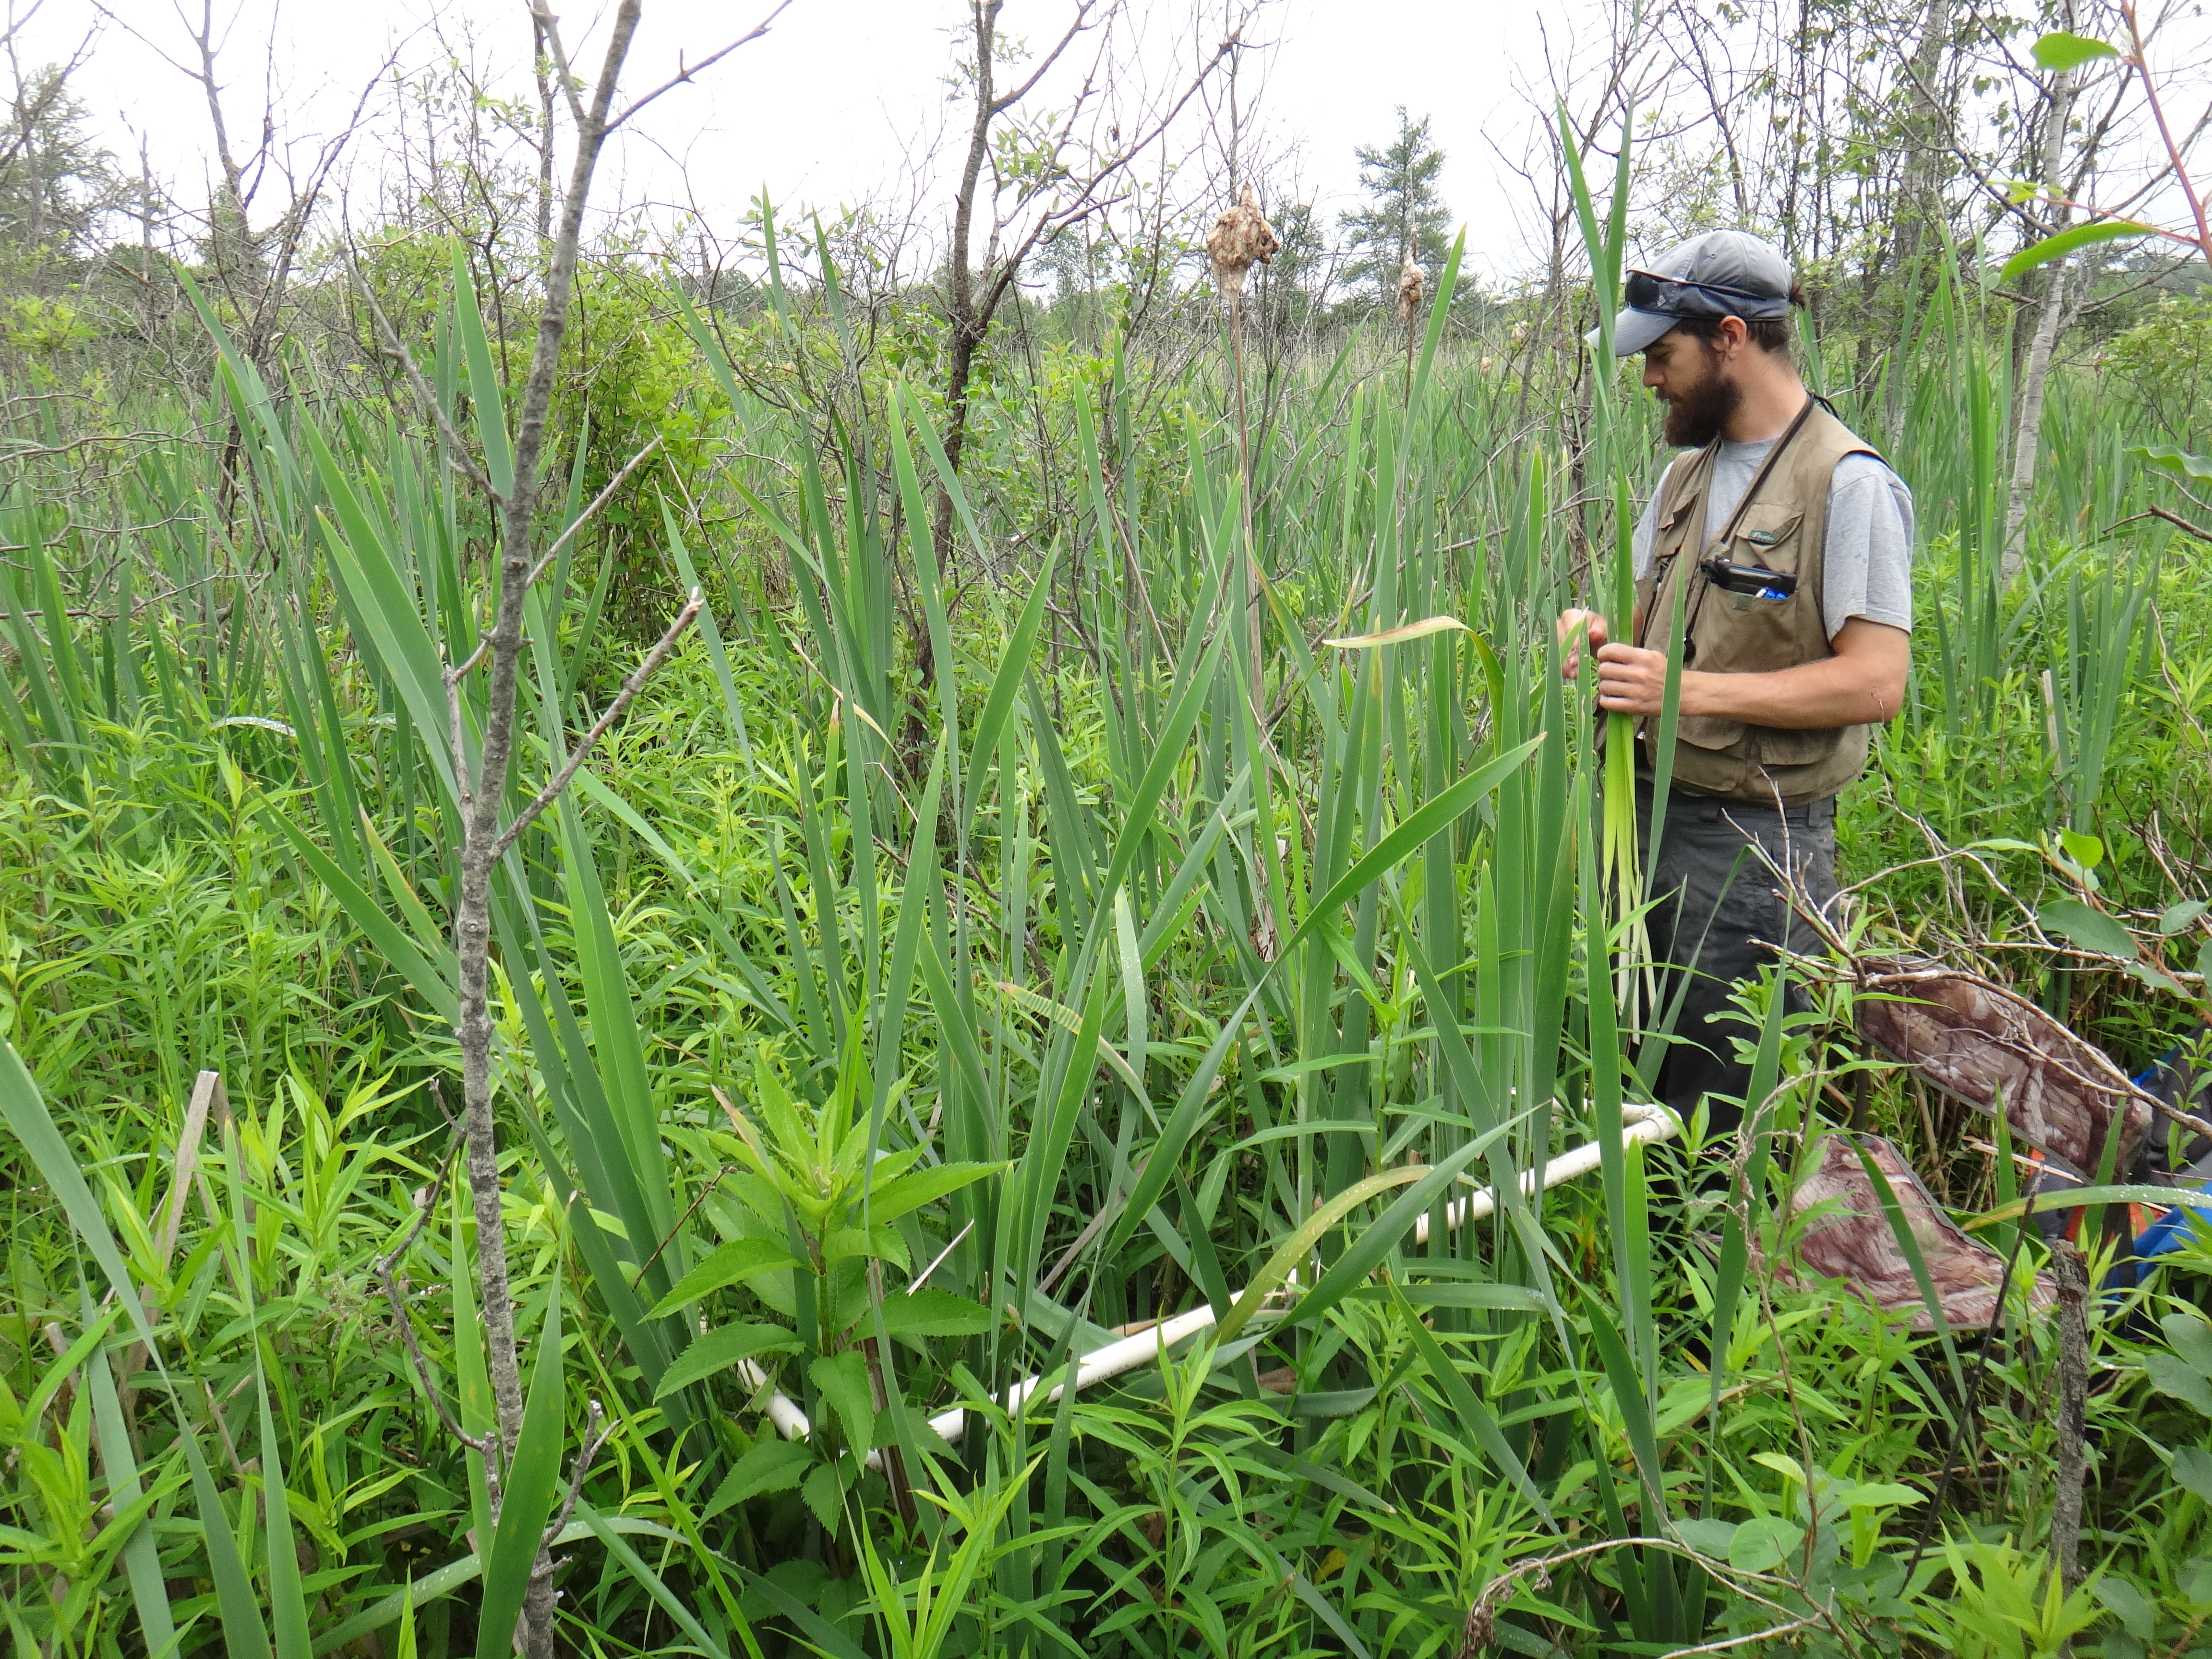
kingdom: Plantae
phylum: Tracheophyta
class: Magnoliopsida
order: Fagales
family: Betulaceae
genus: Betula
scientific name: Betula pumila
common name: Bog birch
